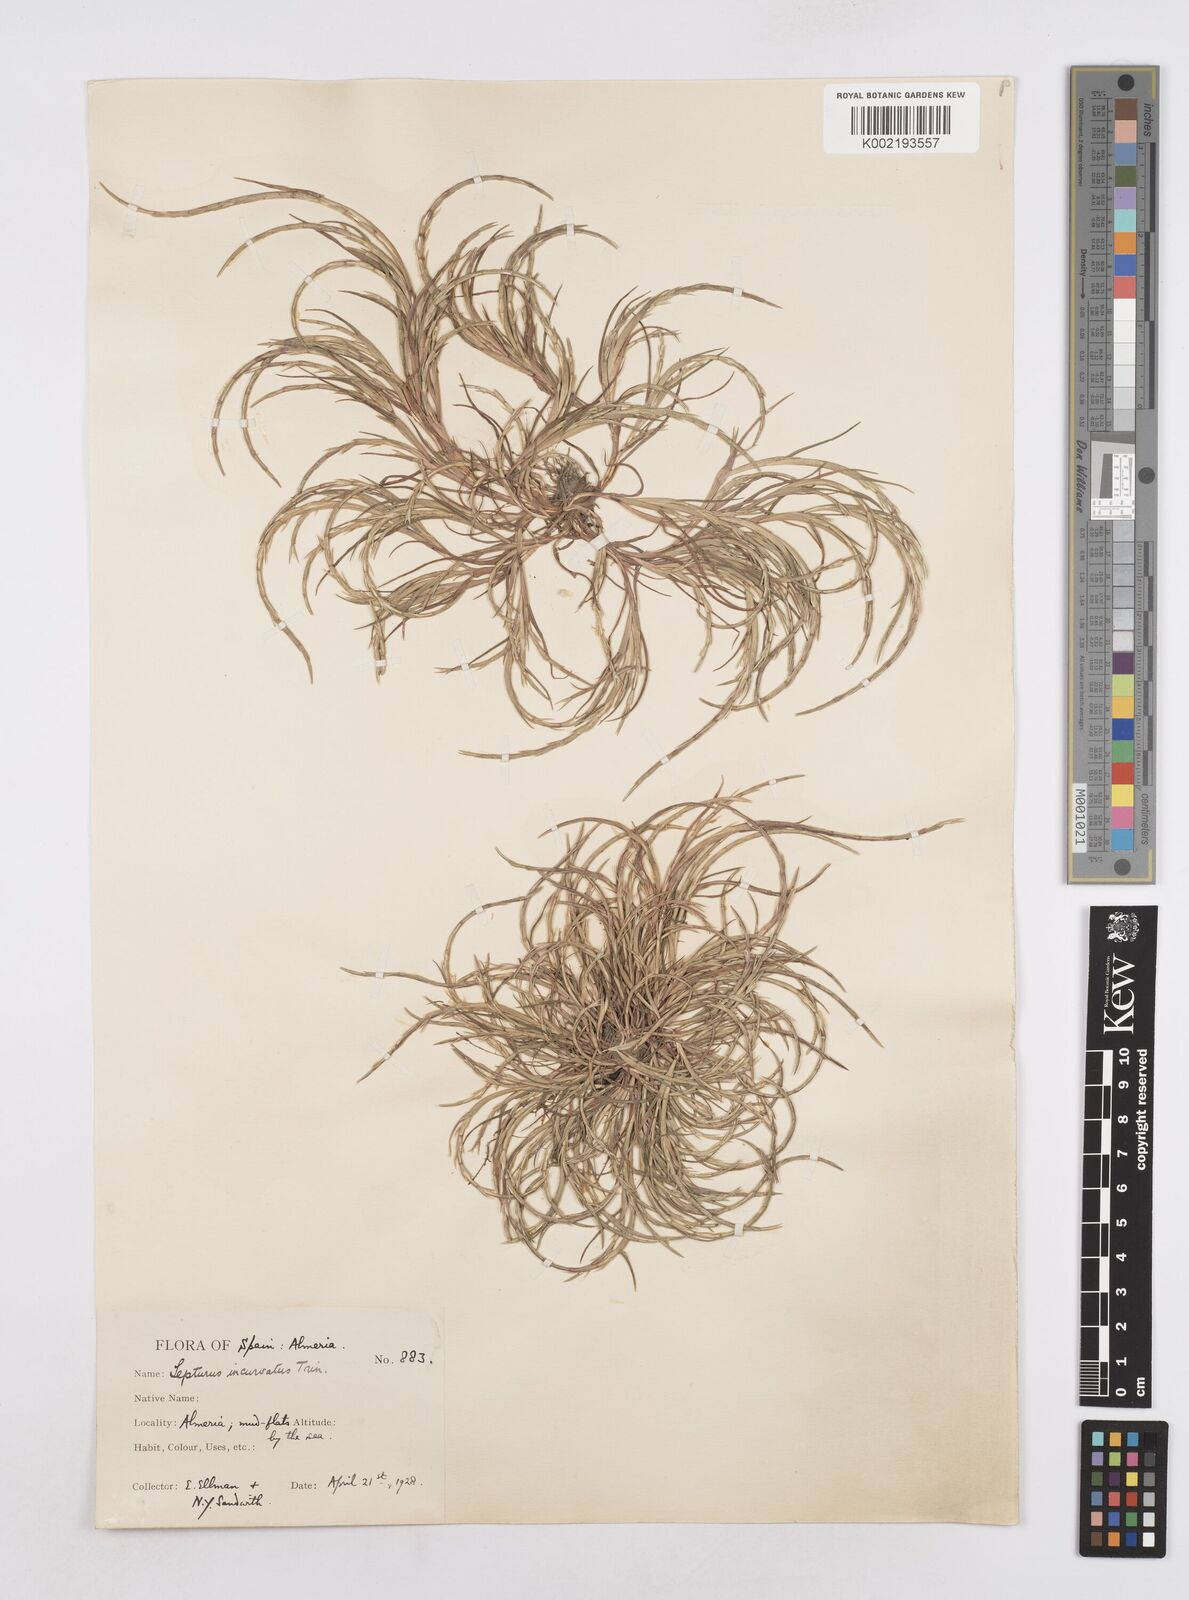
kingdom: Plantae
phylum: Tracheophyta
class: Liliopsida
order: Poales
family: Poaceae
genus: Parapholis
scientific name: Parapholis incurva
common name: Curved sicklegrass
